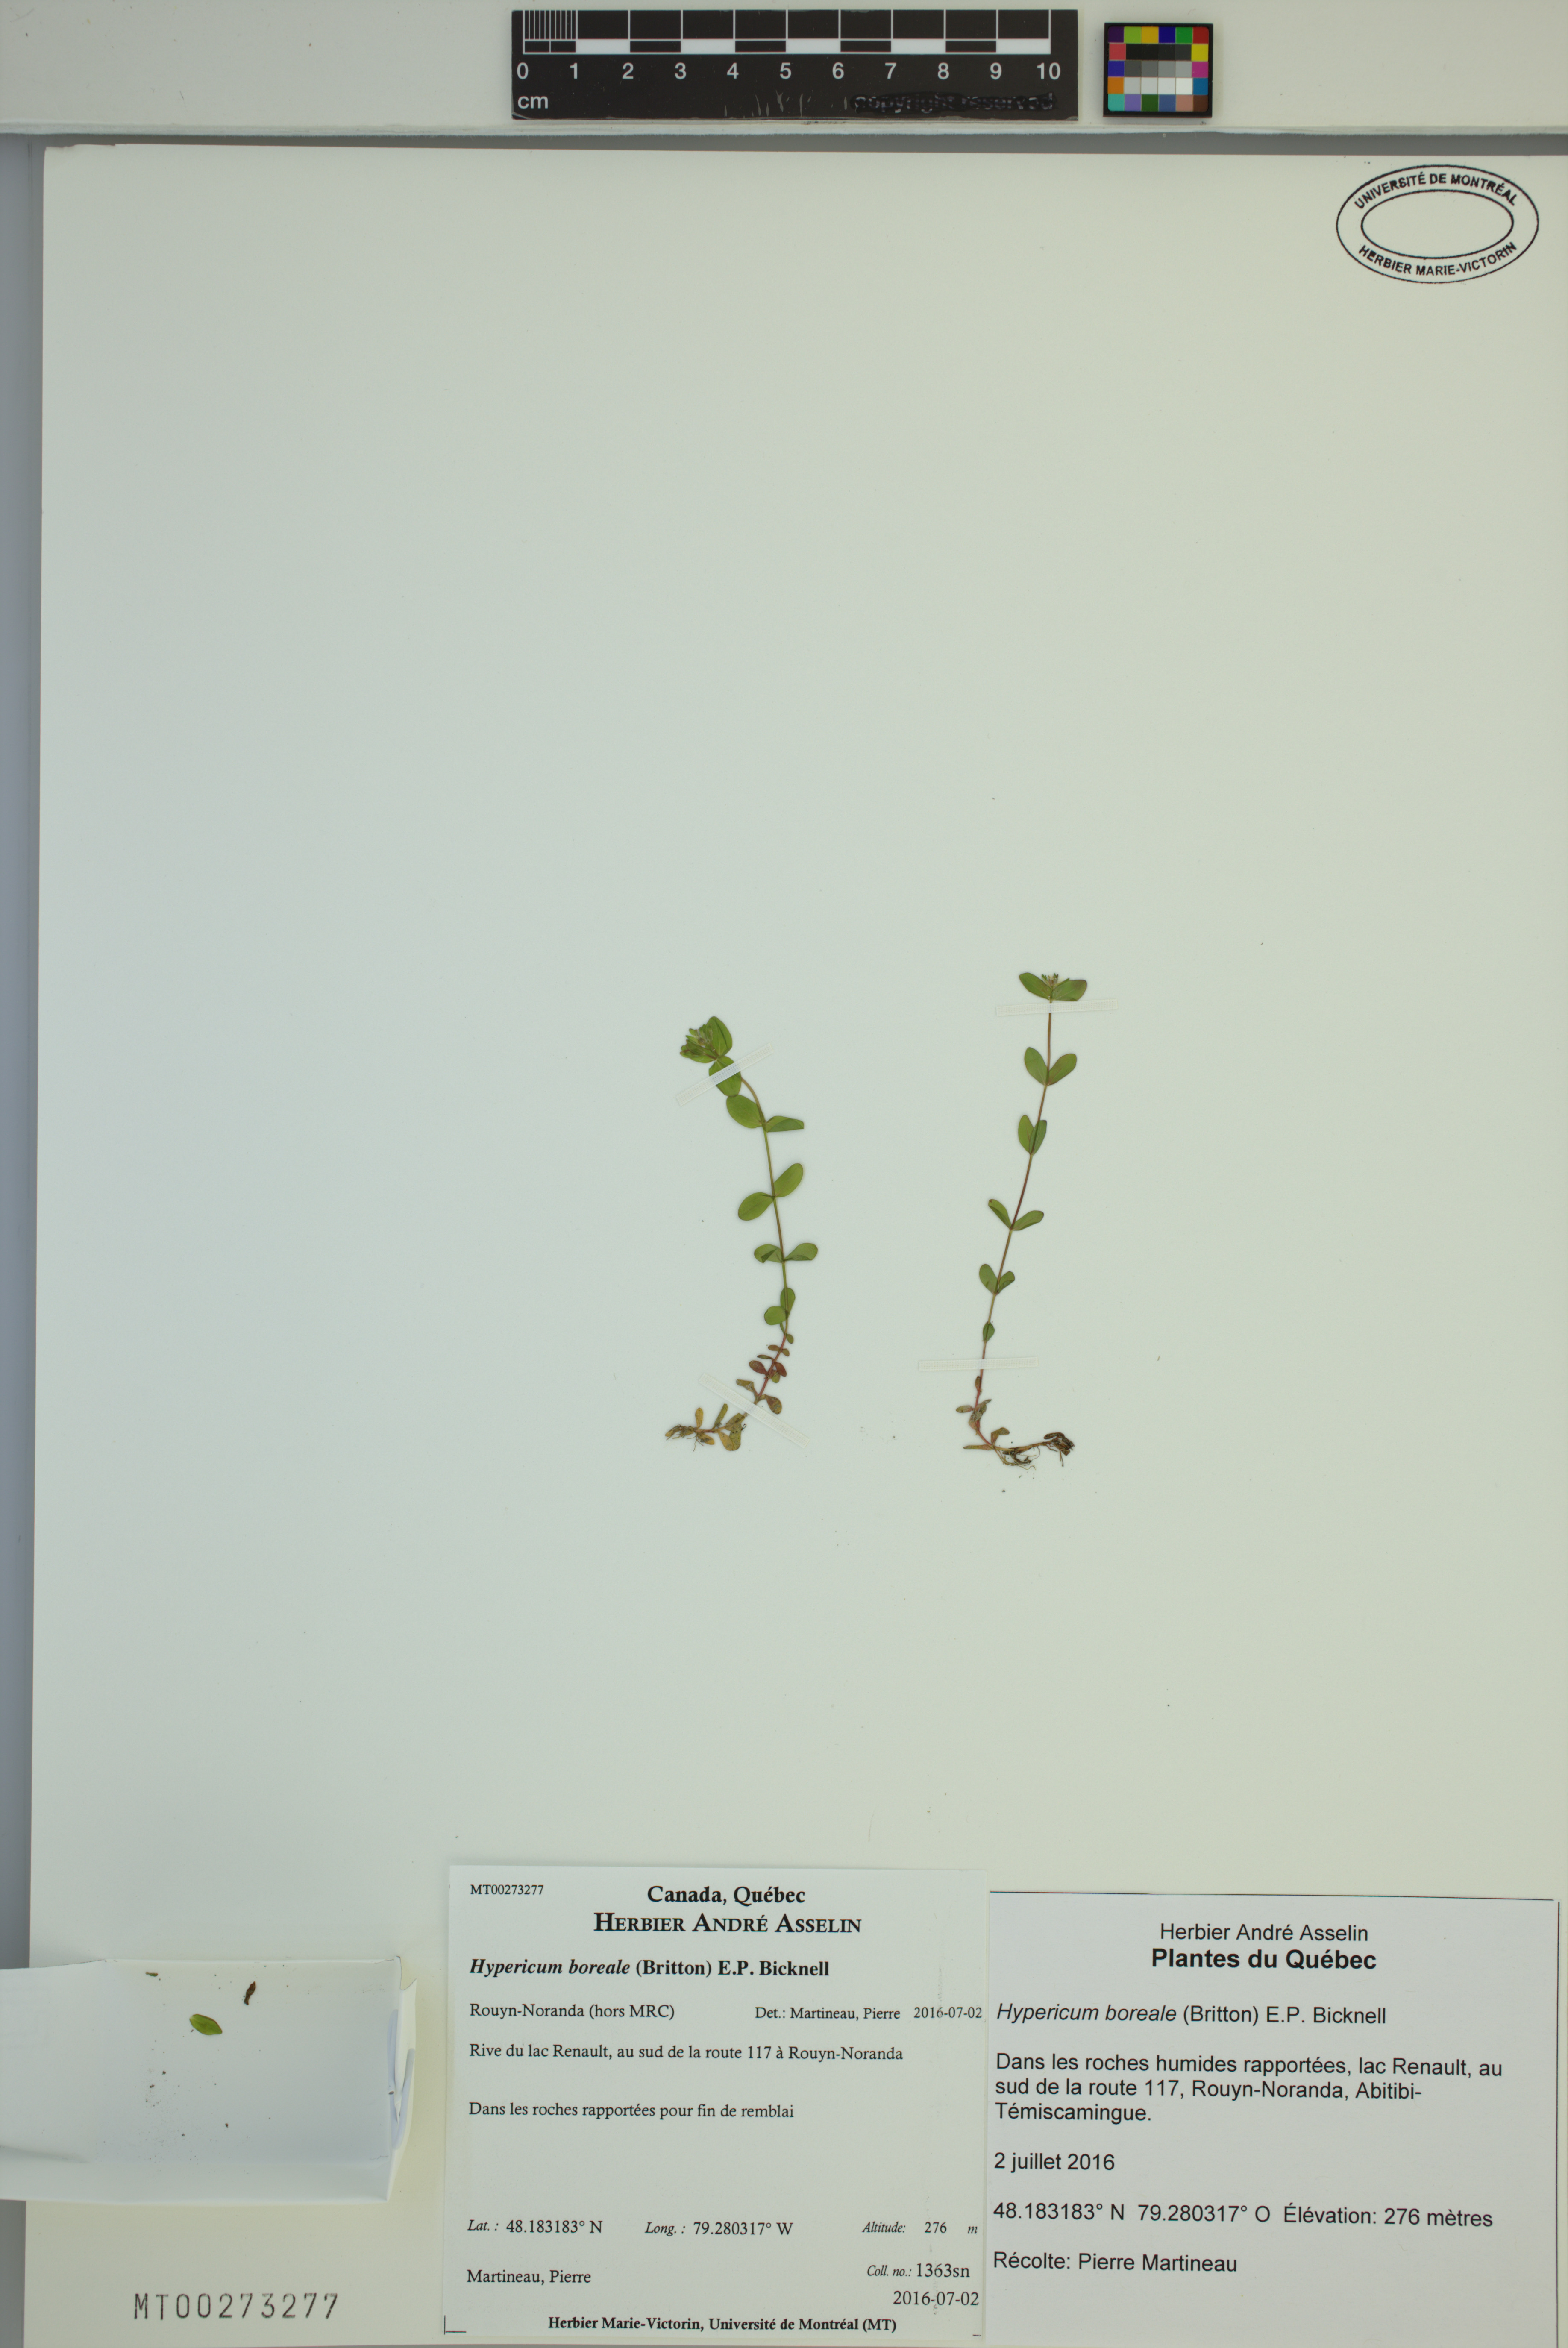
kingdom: Plantae
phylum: Tracheophyta
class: Magnoliopsida
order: Malpighiales
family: Hypericaceae
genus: Hypericum
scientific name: Hypericum boreale
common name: Northern bog st. john's-wort
